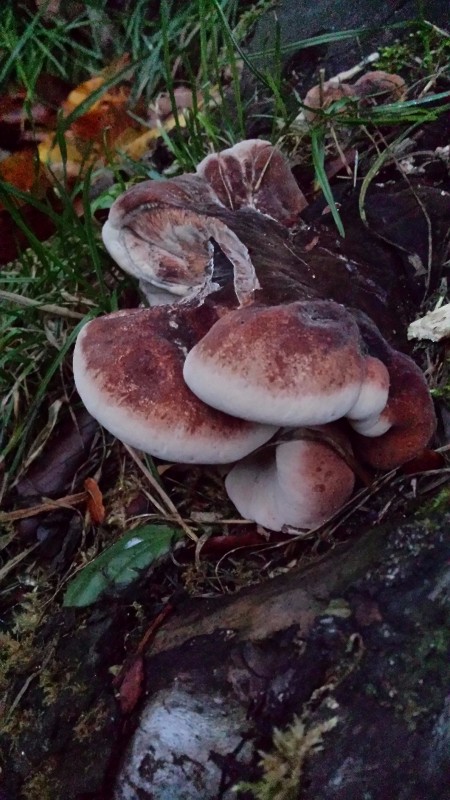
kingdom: Fungi
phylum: Basidiomycota
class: Agaricomycetes
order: Polyporales
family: Ischnodermataceae
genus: Ischnoderma
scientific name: Ischnoderma resinosum
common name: løv-tjæreporesvamp
